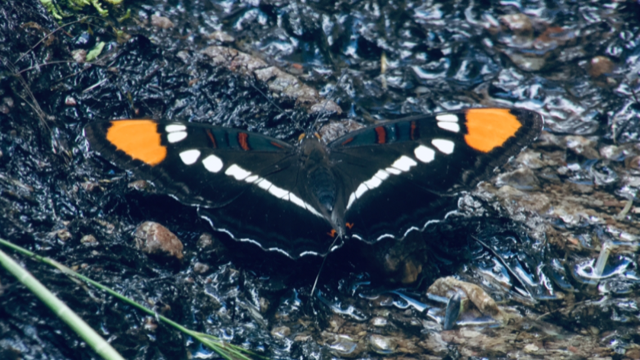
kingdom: Animalia
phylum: Arthropoda
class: Insecta
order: Lepidoptera
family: Nymphalidae
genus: Limenitis
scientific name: Limenitis bredowii
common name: Arizona Sister
